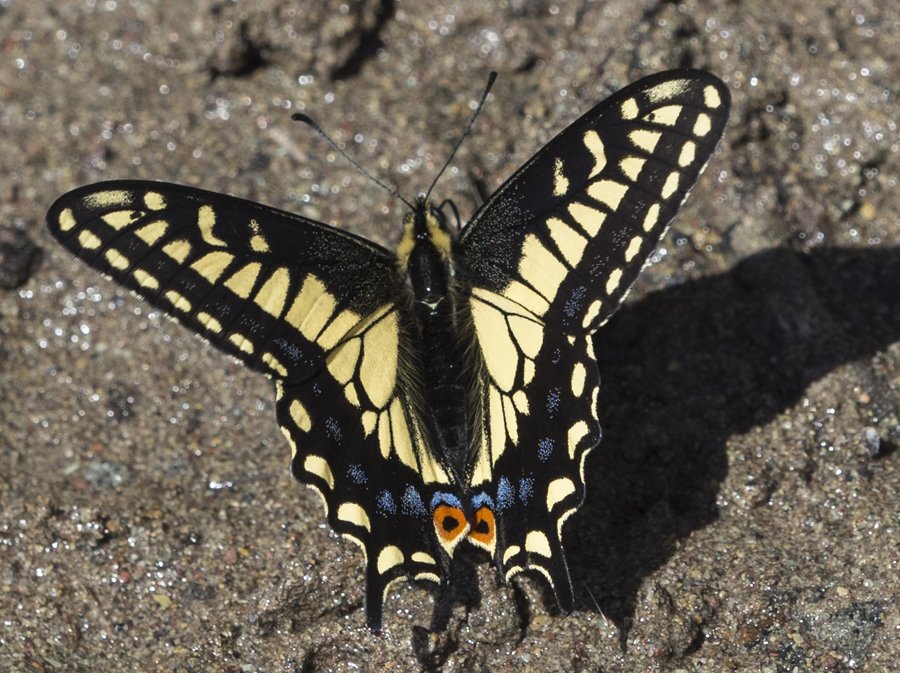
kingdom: Animalia
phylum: Arthropoda
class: Insecta
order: Lepidoptera
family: Papilionidae
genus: Papilio
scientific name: Papilio zelicaon
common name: Anise Swallowtail
